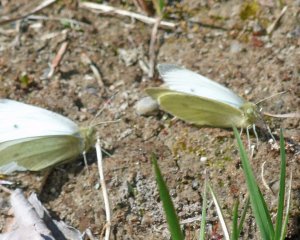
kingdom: Animalia
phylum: Arthropoda
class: Insecta
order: Lepidoptera
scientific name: Lepidoptera
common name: Butterflies
